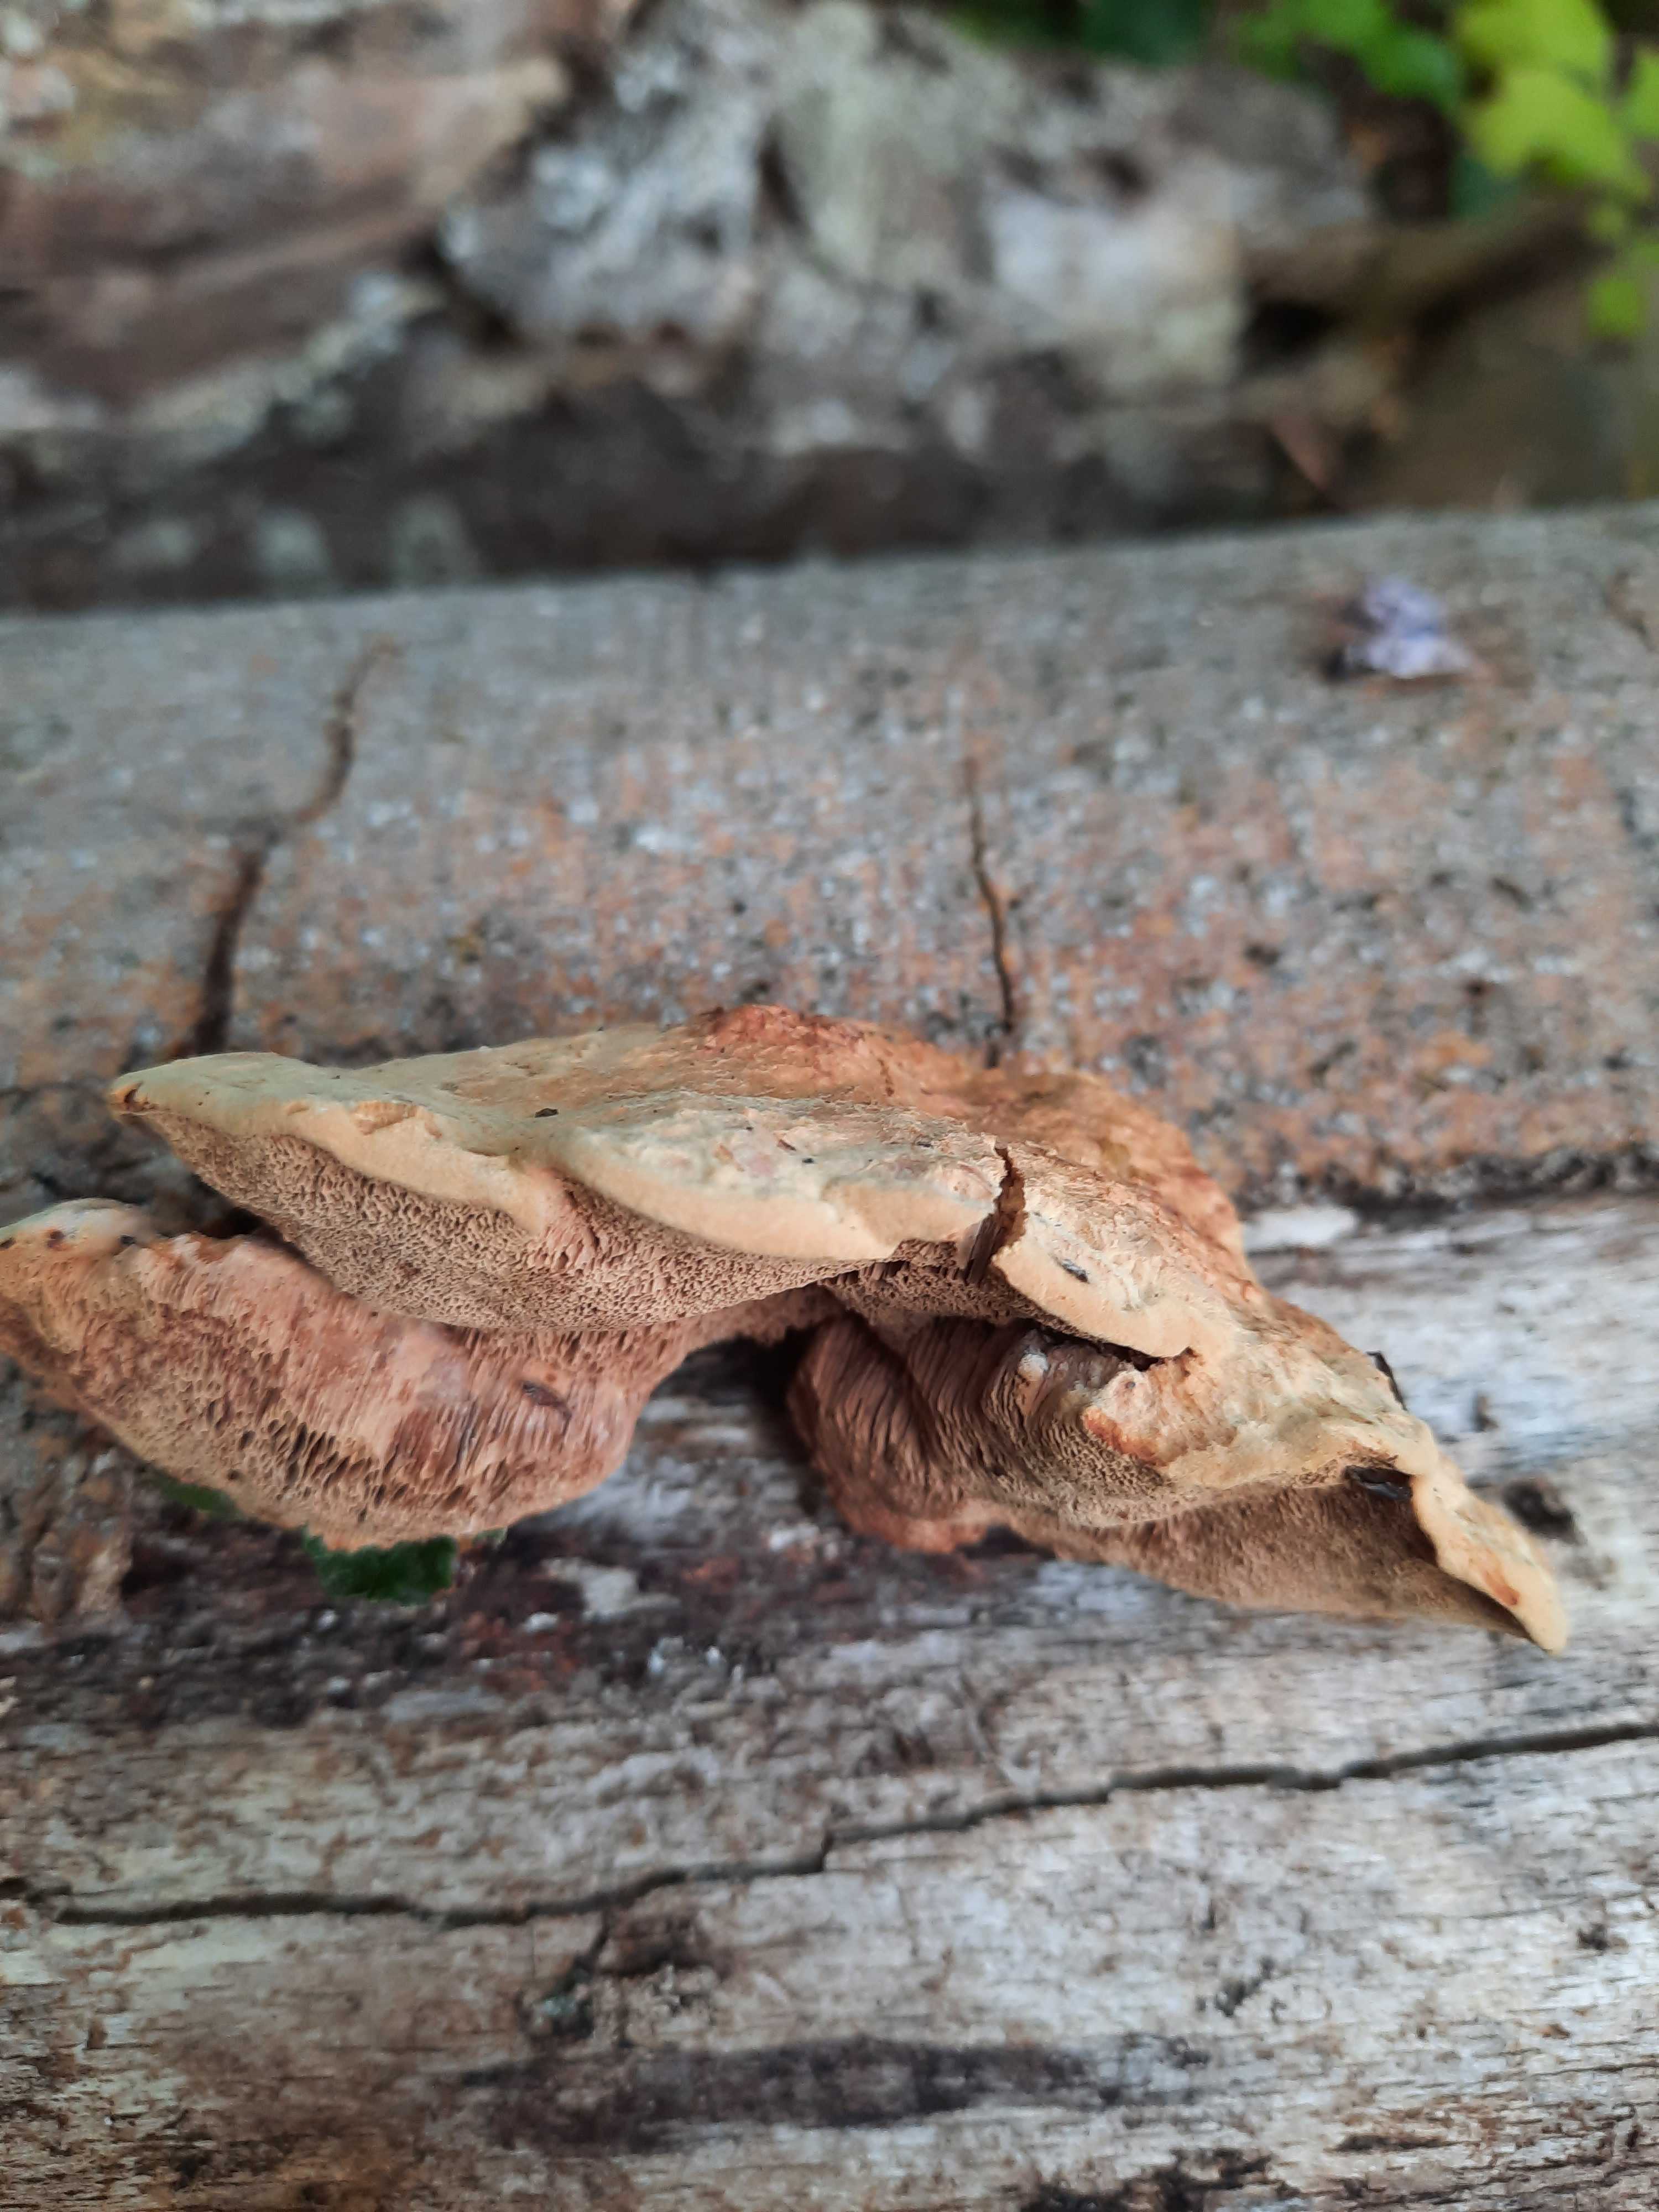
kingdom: Fungi
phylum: Basidiomycota
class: Agaricomycetes
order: Polyporales
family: Phanerochaetaceae
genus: Hapalopilus
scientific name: Hapalopilus rutilans
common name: rødlig okkerporesvamp
